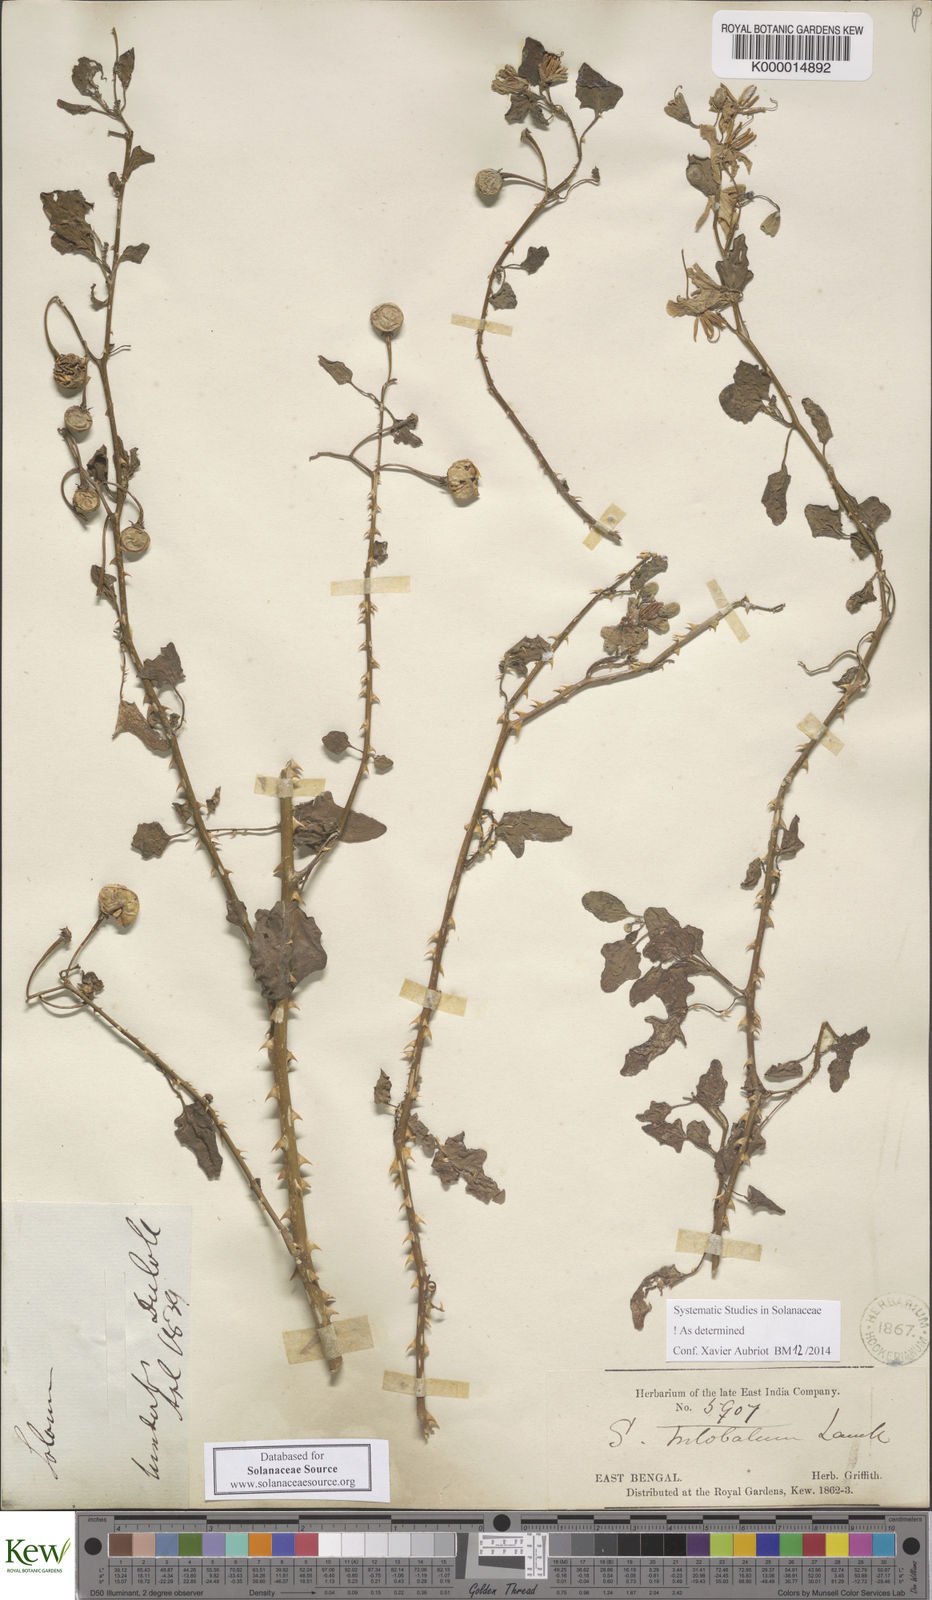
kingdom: Plantae
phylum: Tracheophyta
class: Magnoliopsida
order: Solanales
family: Solanaceae
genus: Solanum
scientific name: Solanum trilobatum
